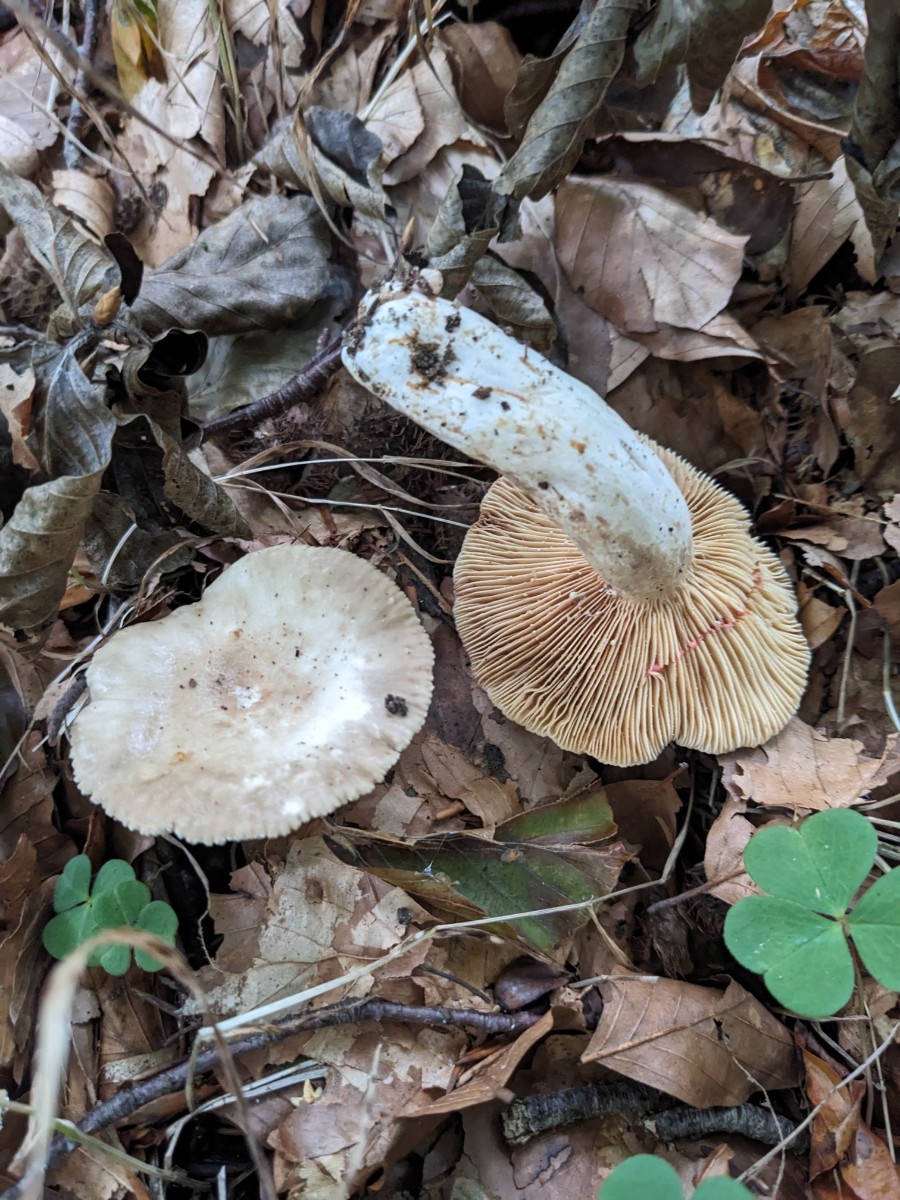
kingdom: Fungi
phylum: Basidiomycota
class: Agaricomycetes
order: Russulales
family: Russulaceae
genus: Lactarius
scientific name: Lactarius ruginosus
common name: gråbrun mælkehat
